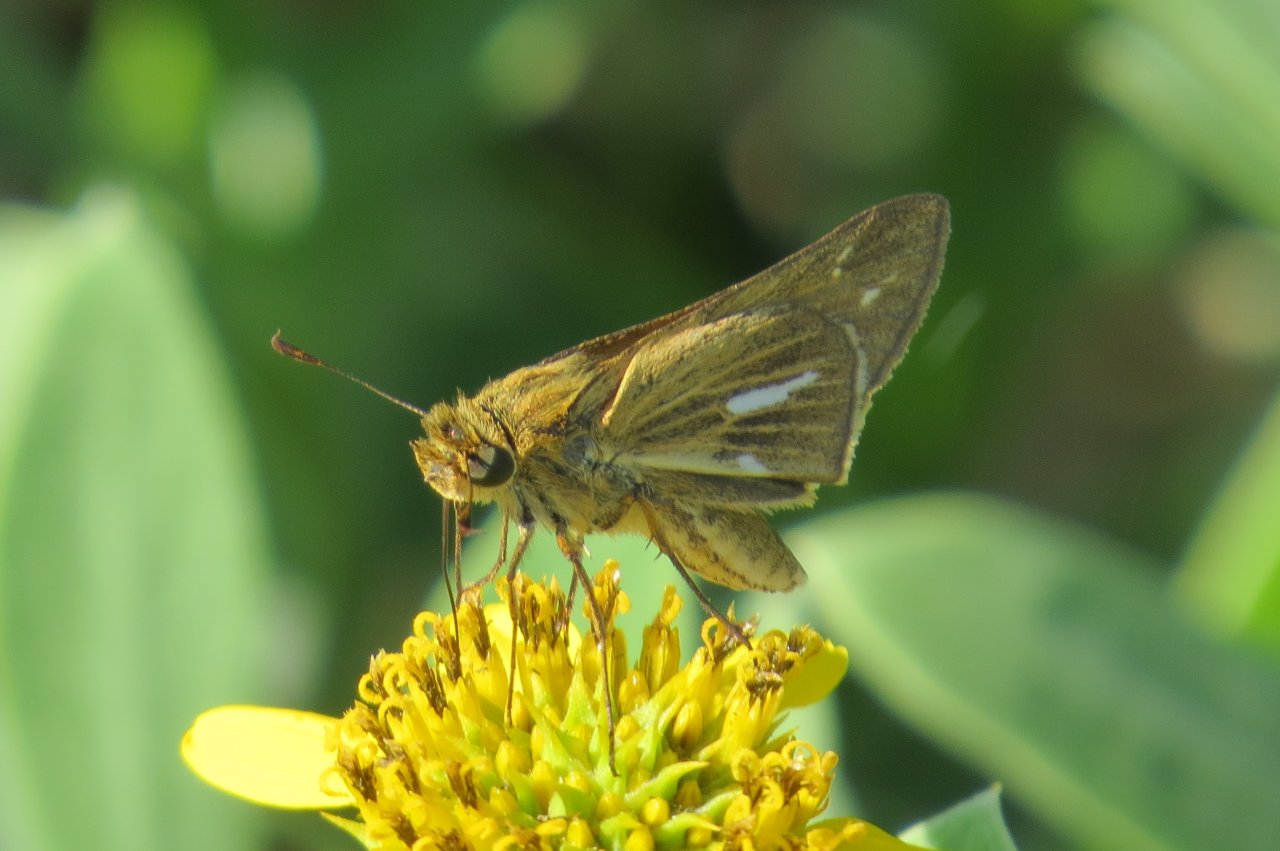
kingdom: Animalia
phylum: Arthropoda
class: Insecta
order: Lepidoptera
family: Hesperiidae
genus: Panoquina
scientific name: Panoquina panoquin
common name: Salt Marsh Skipper
